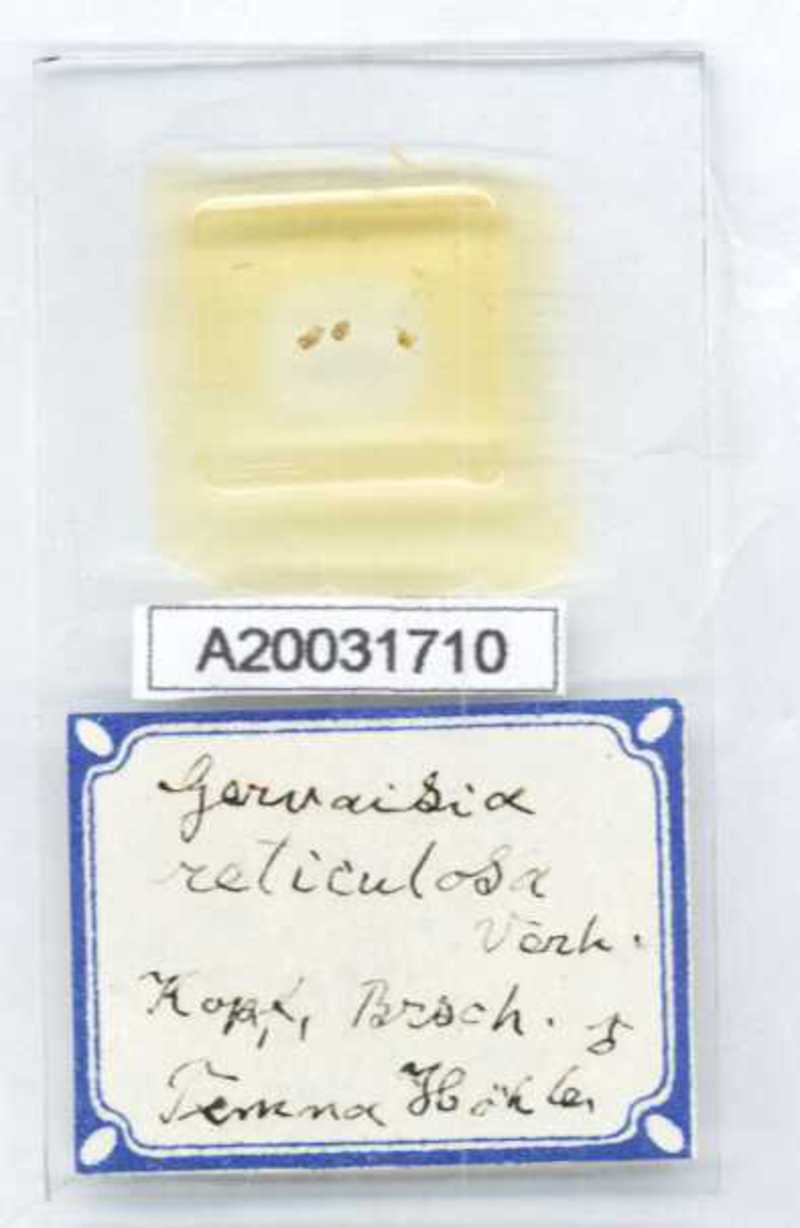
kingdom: Animalia
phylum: Arthropoda
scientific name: Arthropoda
